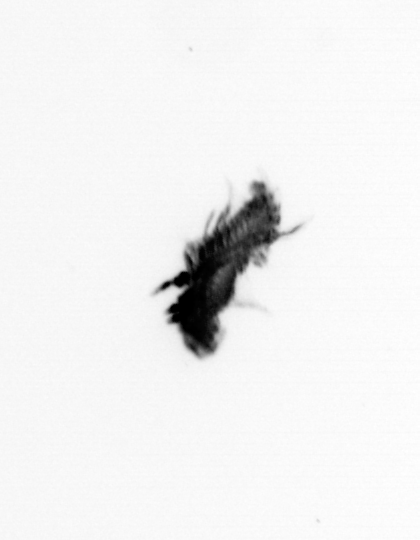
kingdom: Animalia
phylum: Annelida
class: Polychaeta
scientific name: Polychaeta
